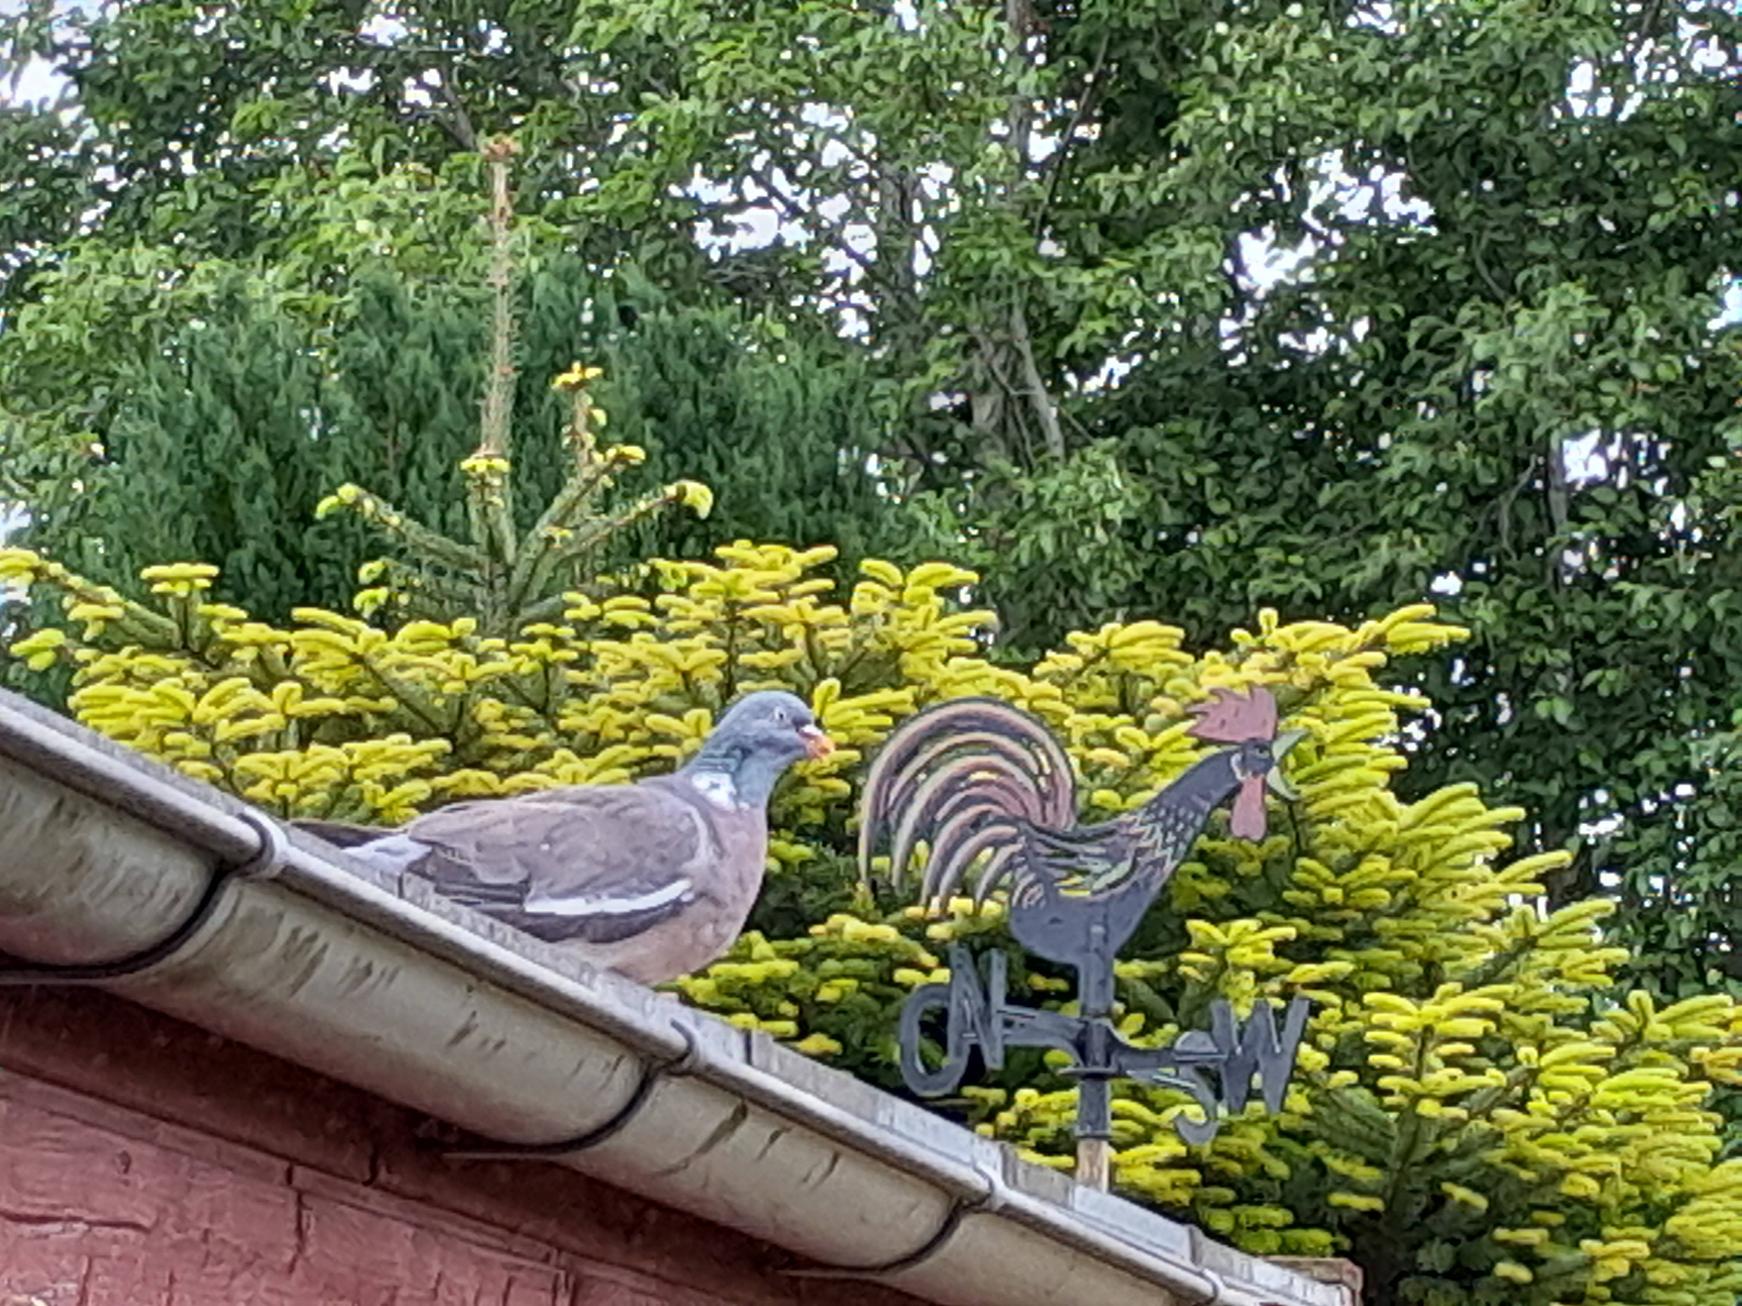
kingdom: Animalia
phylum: Chordata
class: Aves
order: Columbiformes
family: Columbidae
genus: Columba
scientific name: Columba palumbus
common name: Ringdue
